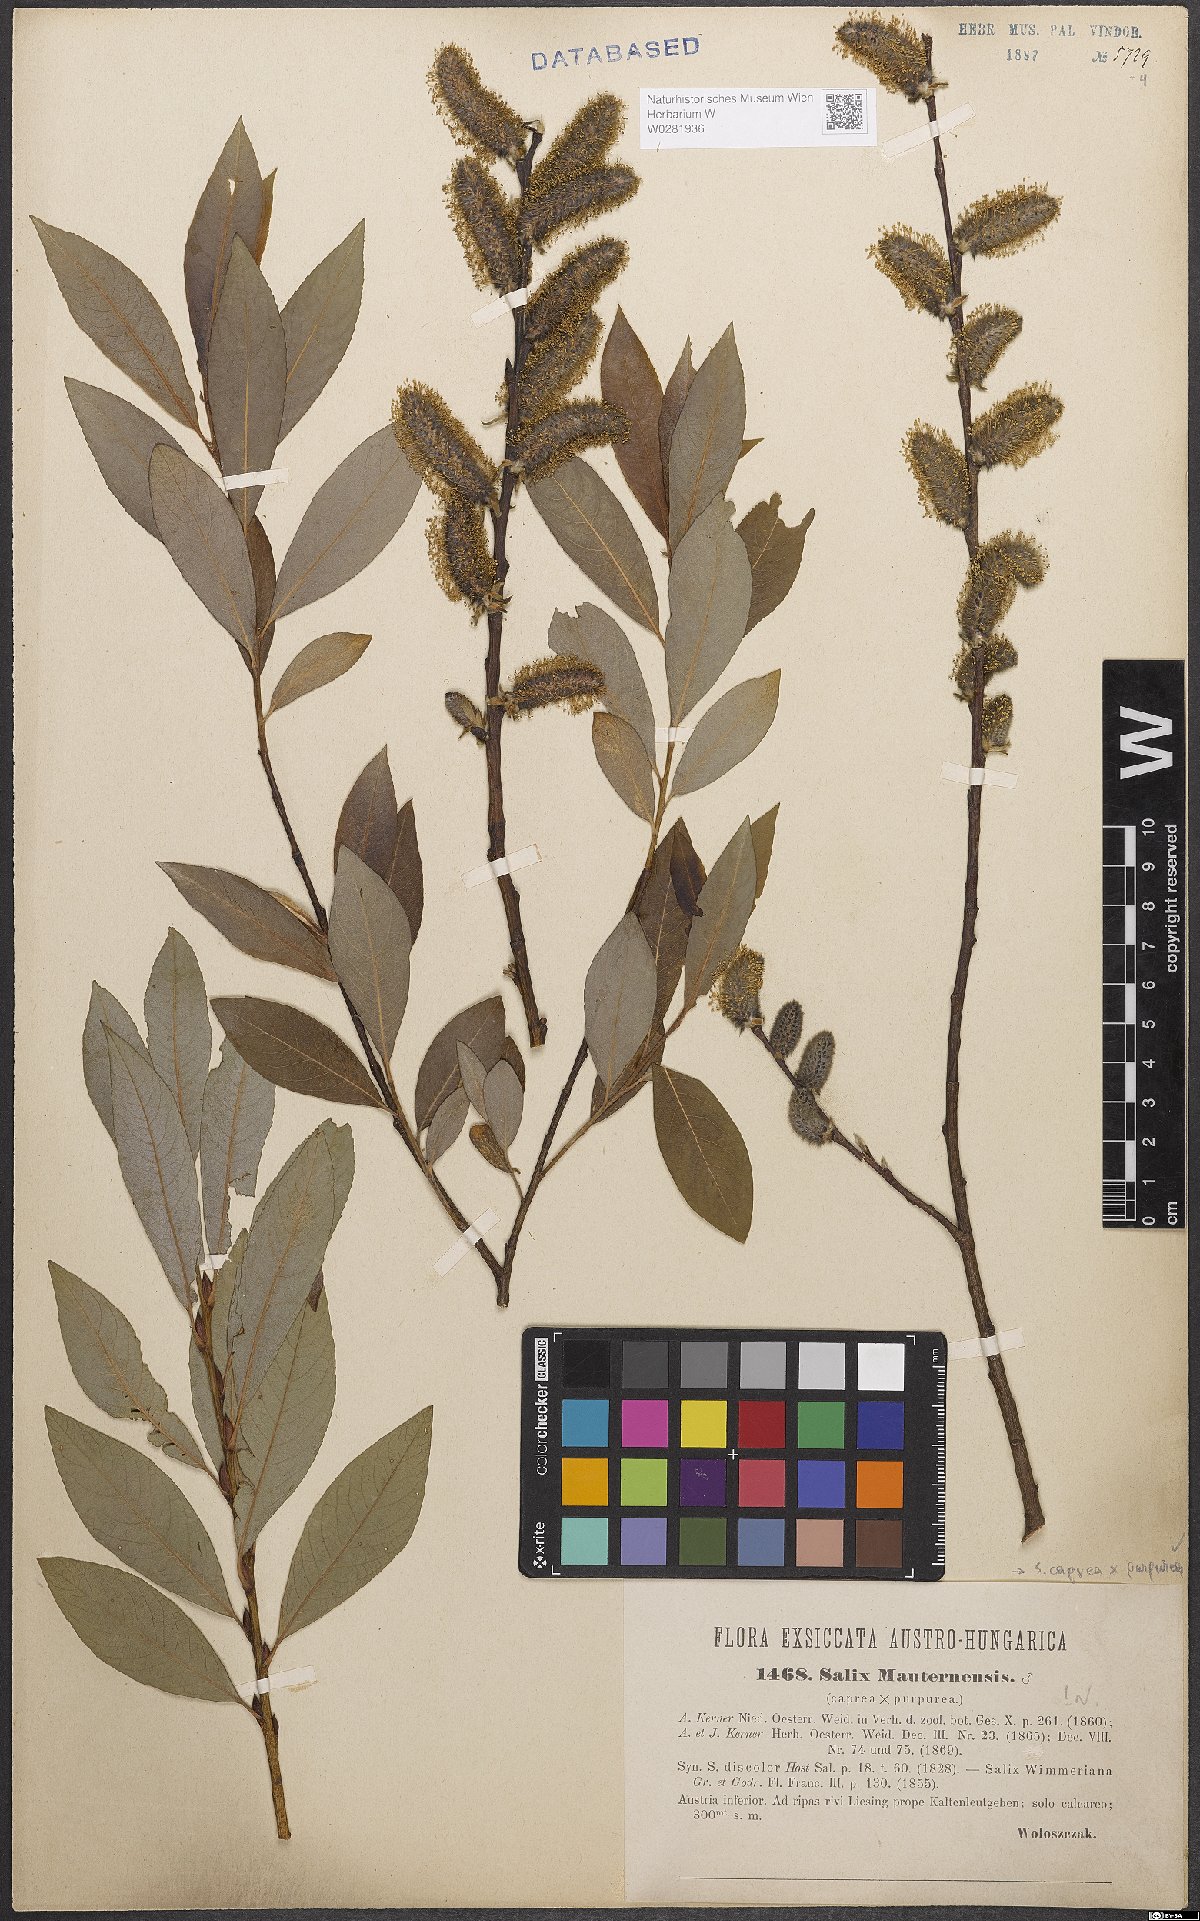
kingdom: Plantae
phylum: Tracheophyta
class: Magnoliopsida
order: Malpighiales
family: Salicaceae
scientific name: Salicaceae
